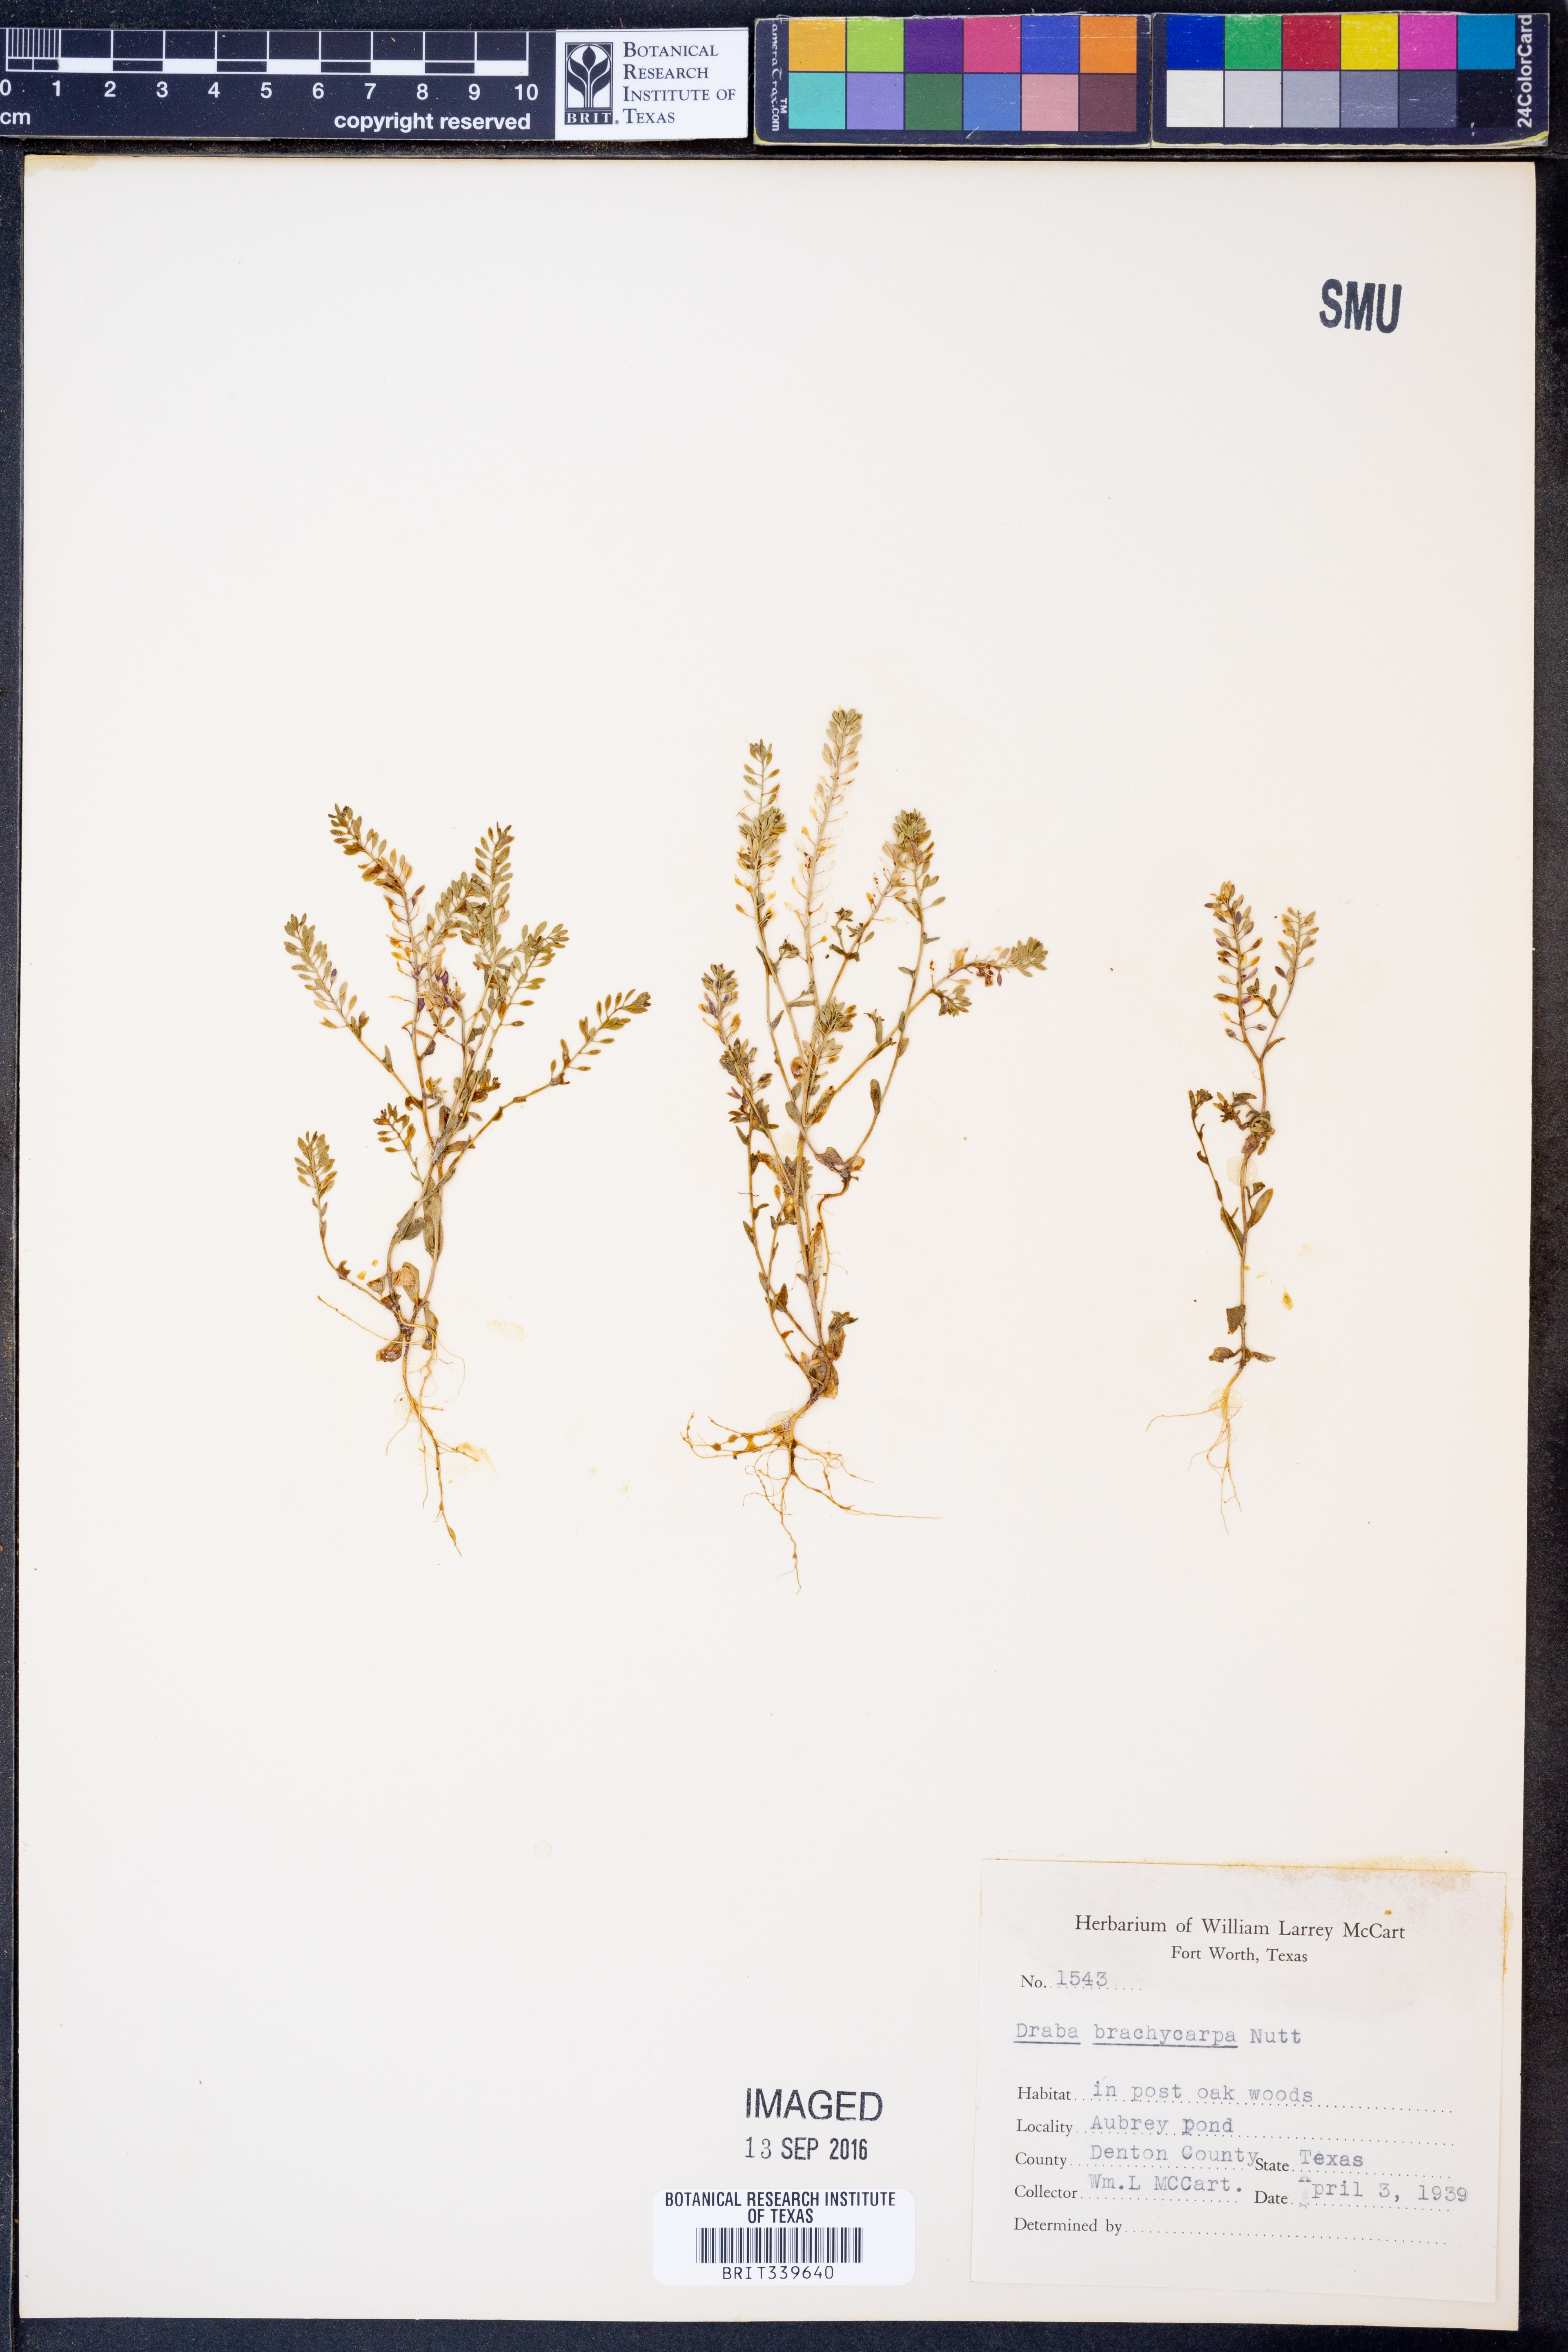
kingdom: Plantae
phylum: Tracheophyta
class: Magnoliopsida
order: Brassicales
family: Brassicaceae
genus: Abdra
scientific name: Abdra brachycarpa
